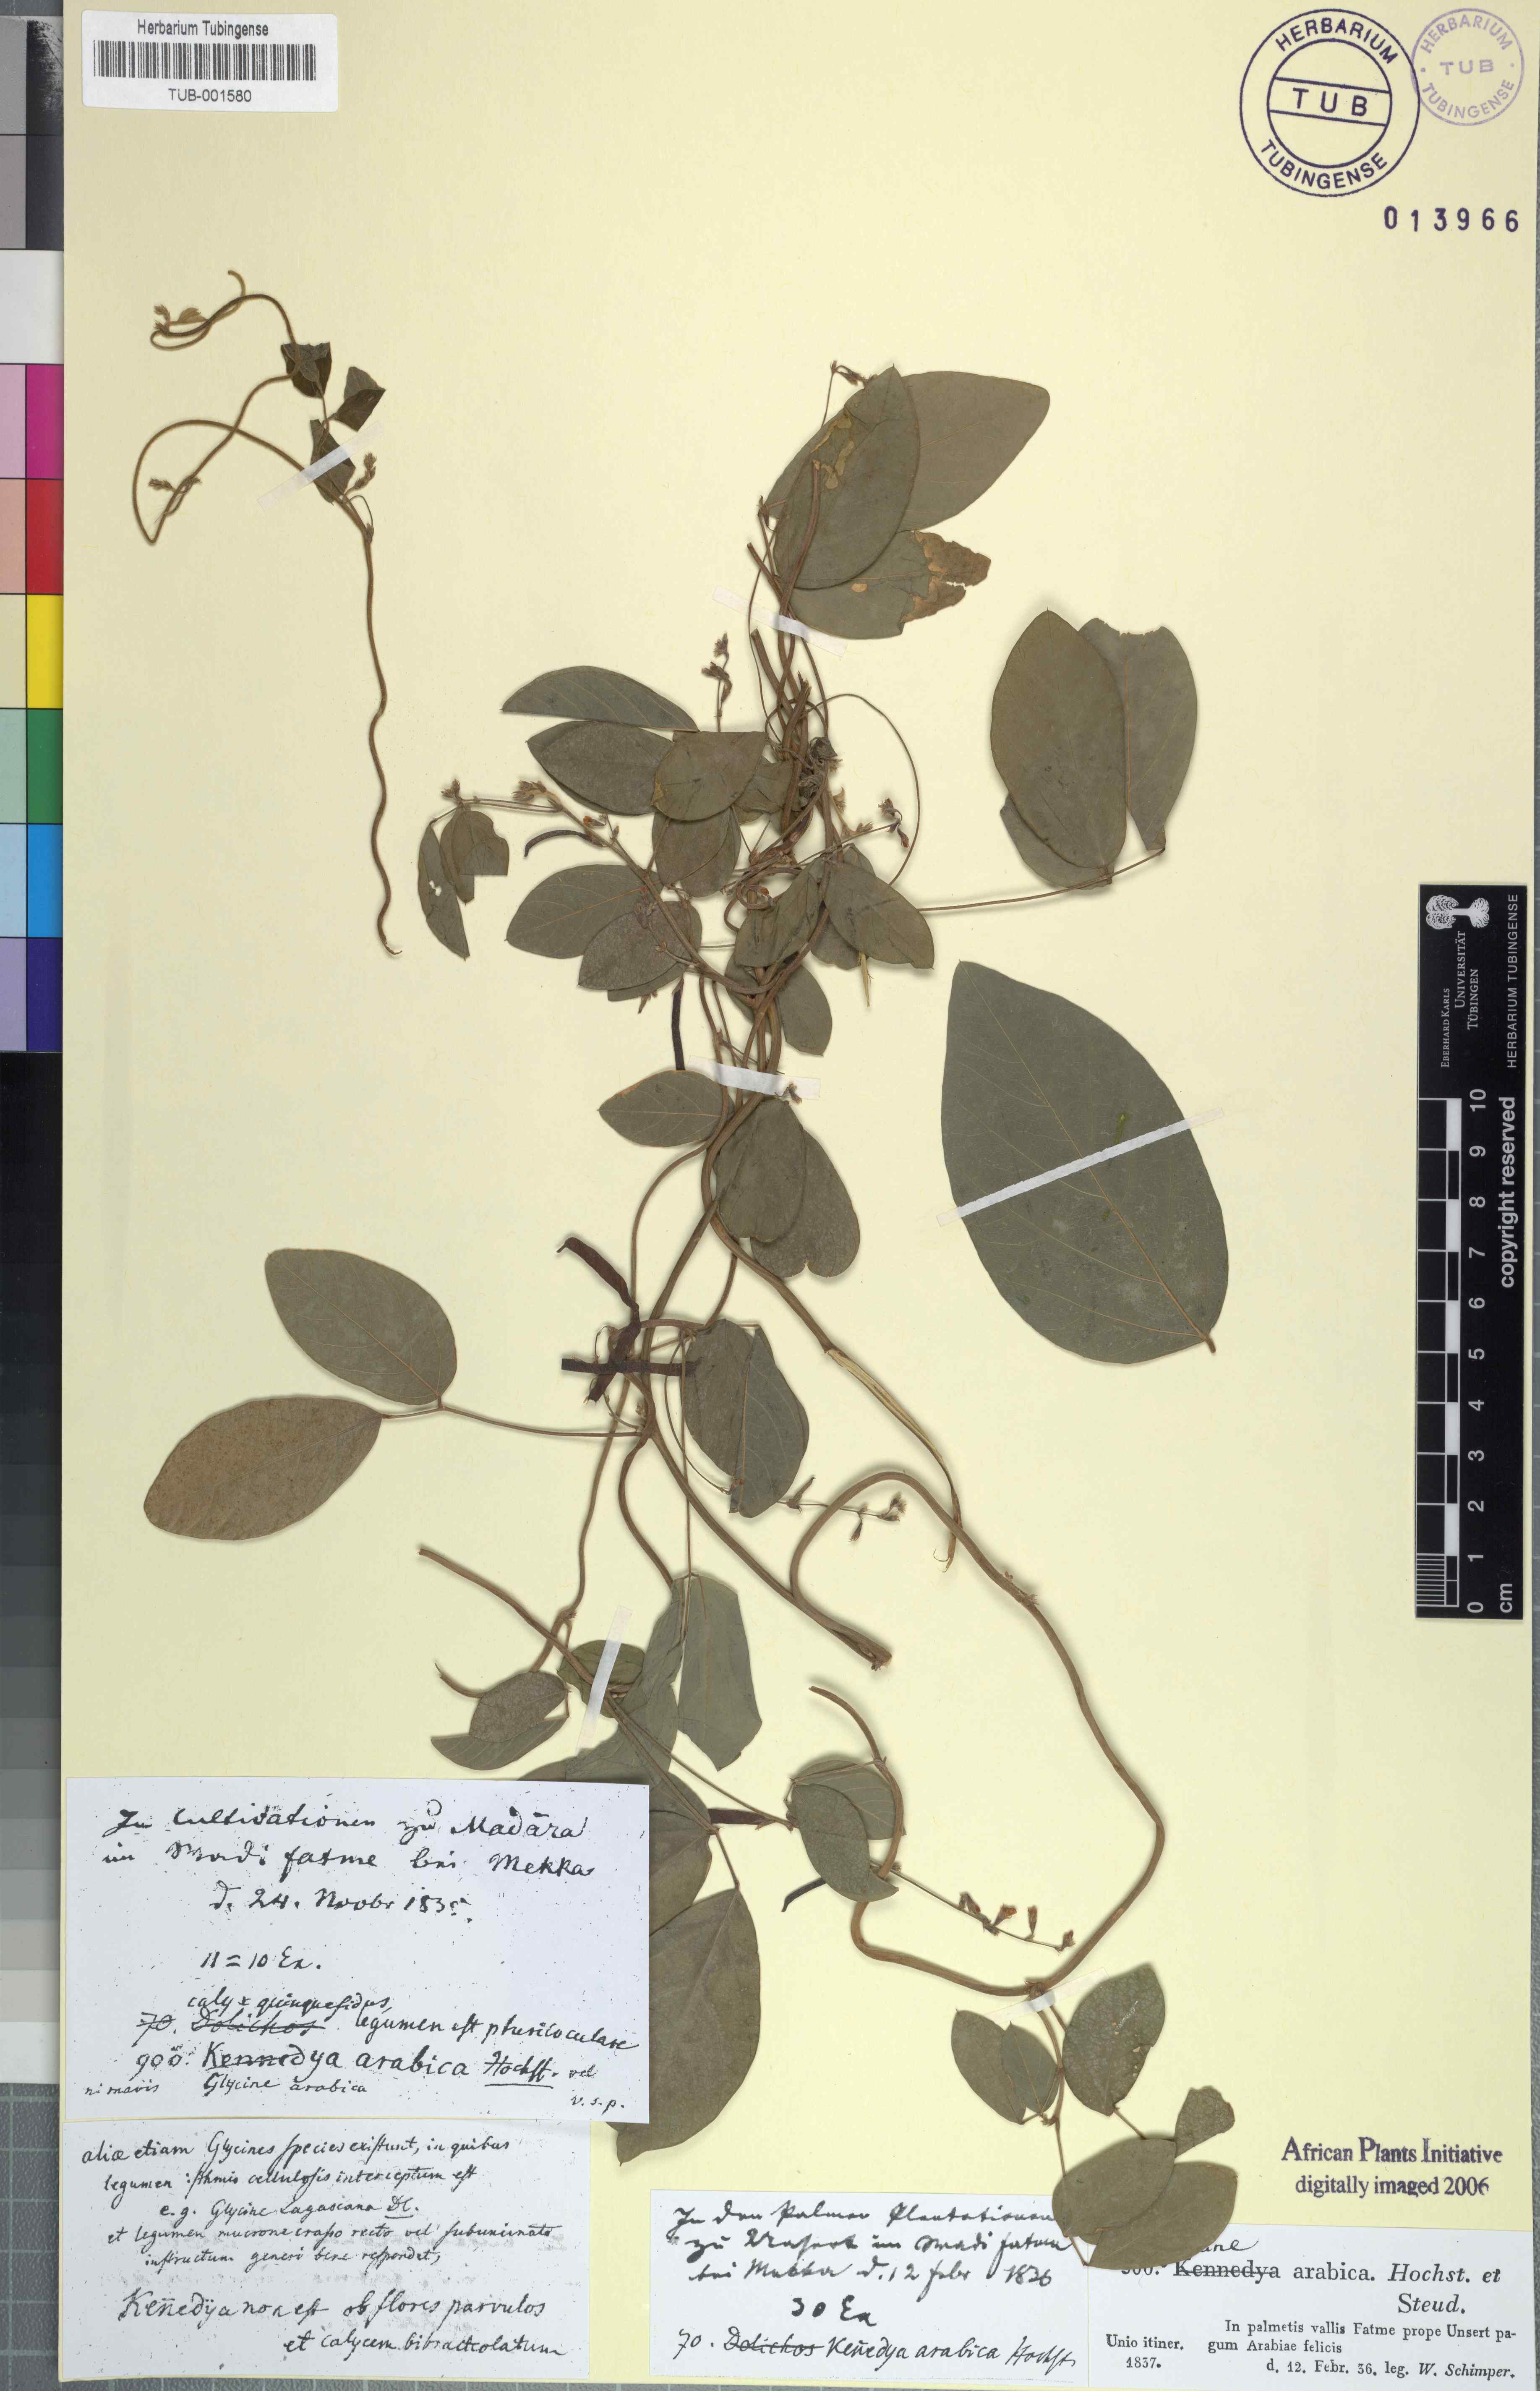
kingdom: Plantae
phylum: Tracheophyta
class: Magnoliopsida
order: Fabales
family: Fabaceae
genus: Teramnus
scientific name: Teramnus labialis
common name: Blue wiss
